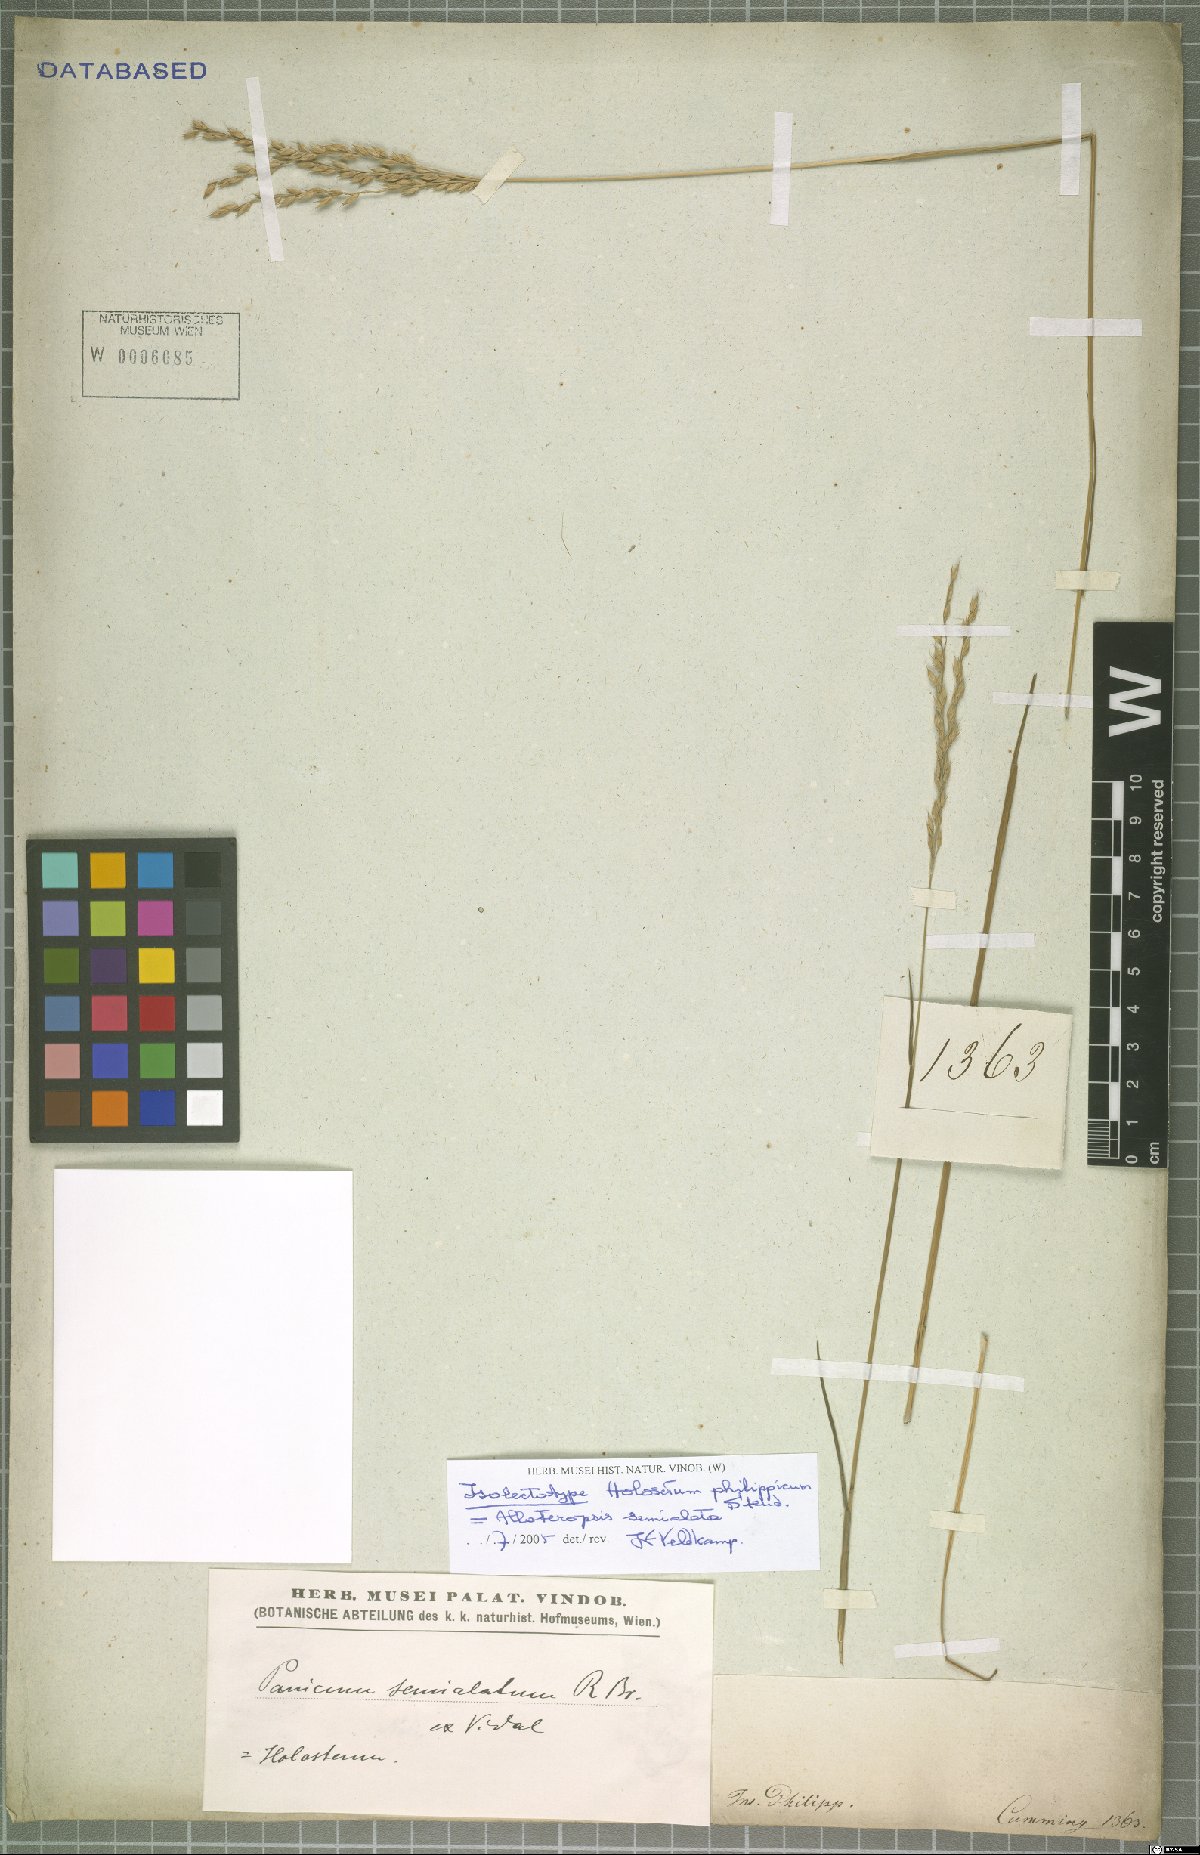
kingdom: Plantae
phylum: Tracheophyta
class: Liliopsida
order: Poales
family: Poaceae
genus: Alloteropsis
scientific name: Alloteropsis semialata
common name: Cockatoo grass
